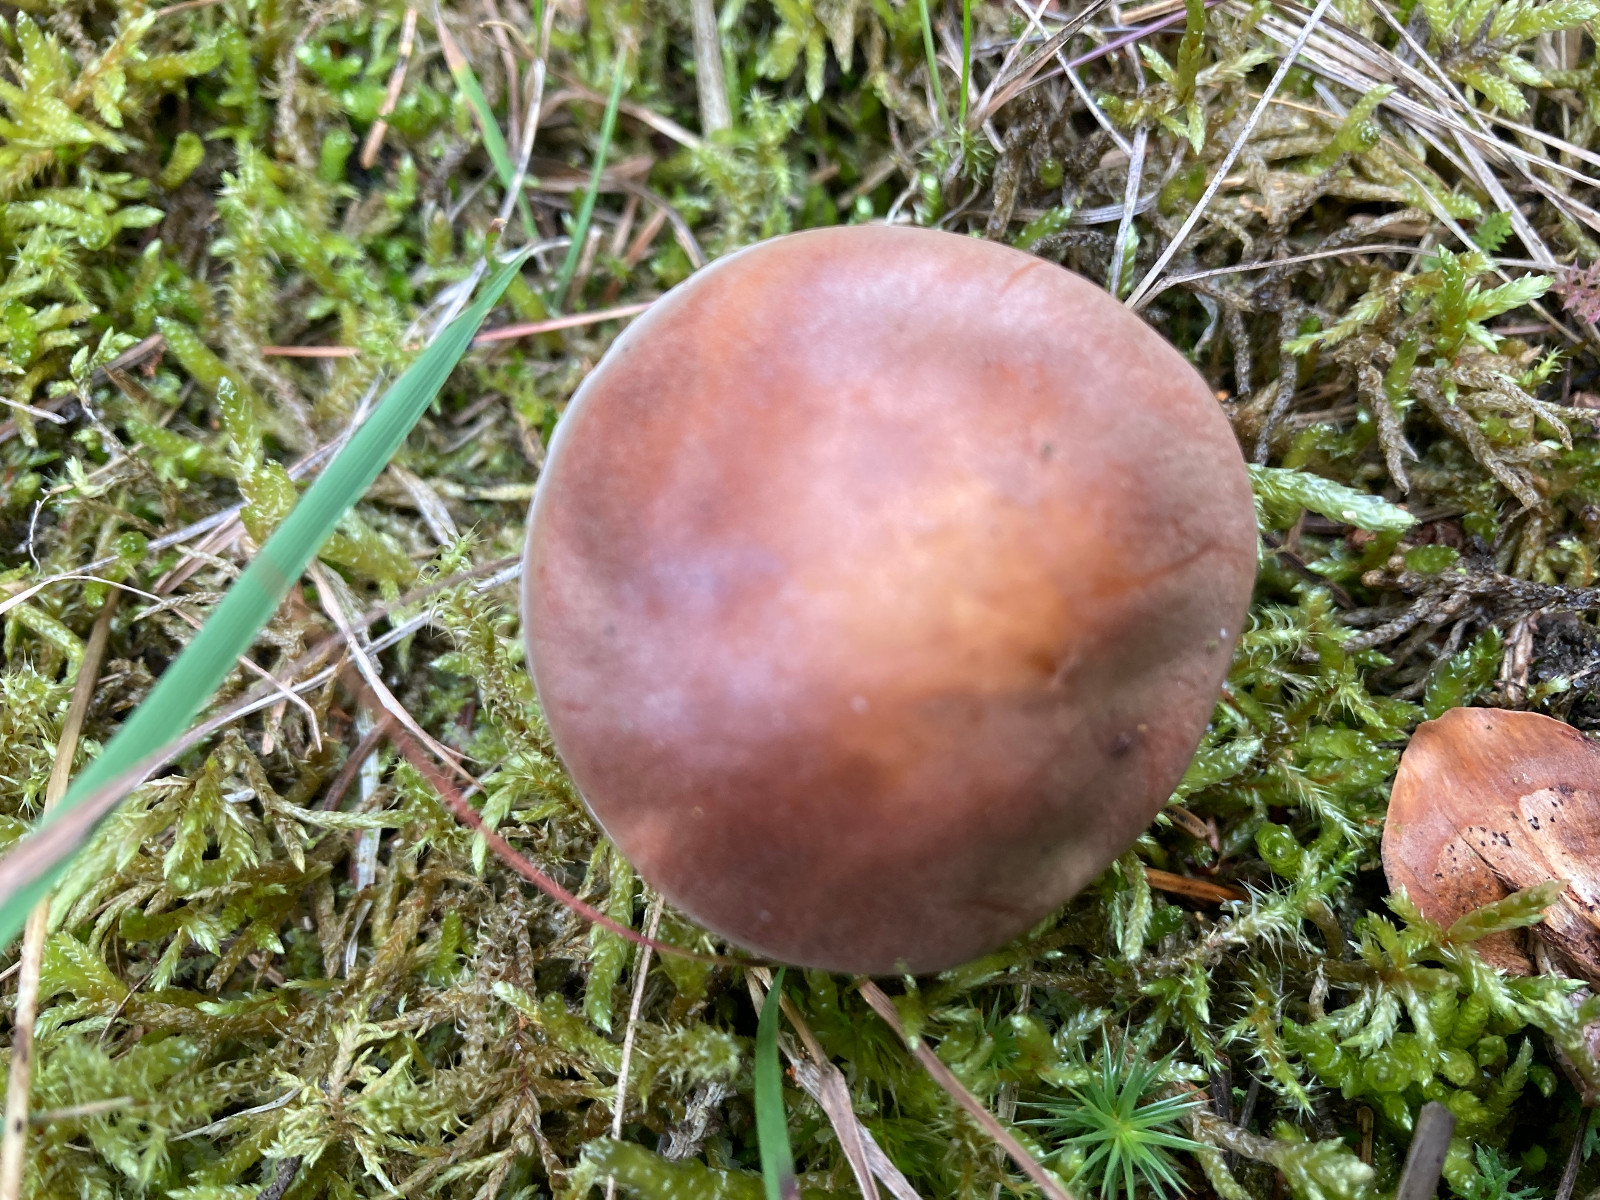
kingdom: Fungi
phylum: Basidiomycota
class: Agaricomycetes
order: Agaricales
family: Hymenogastraceae
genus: Hebeloma
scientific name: Hebeloma theobrominum
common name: rødbrun tåreblad
